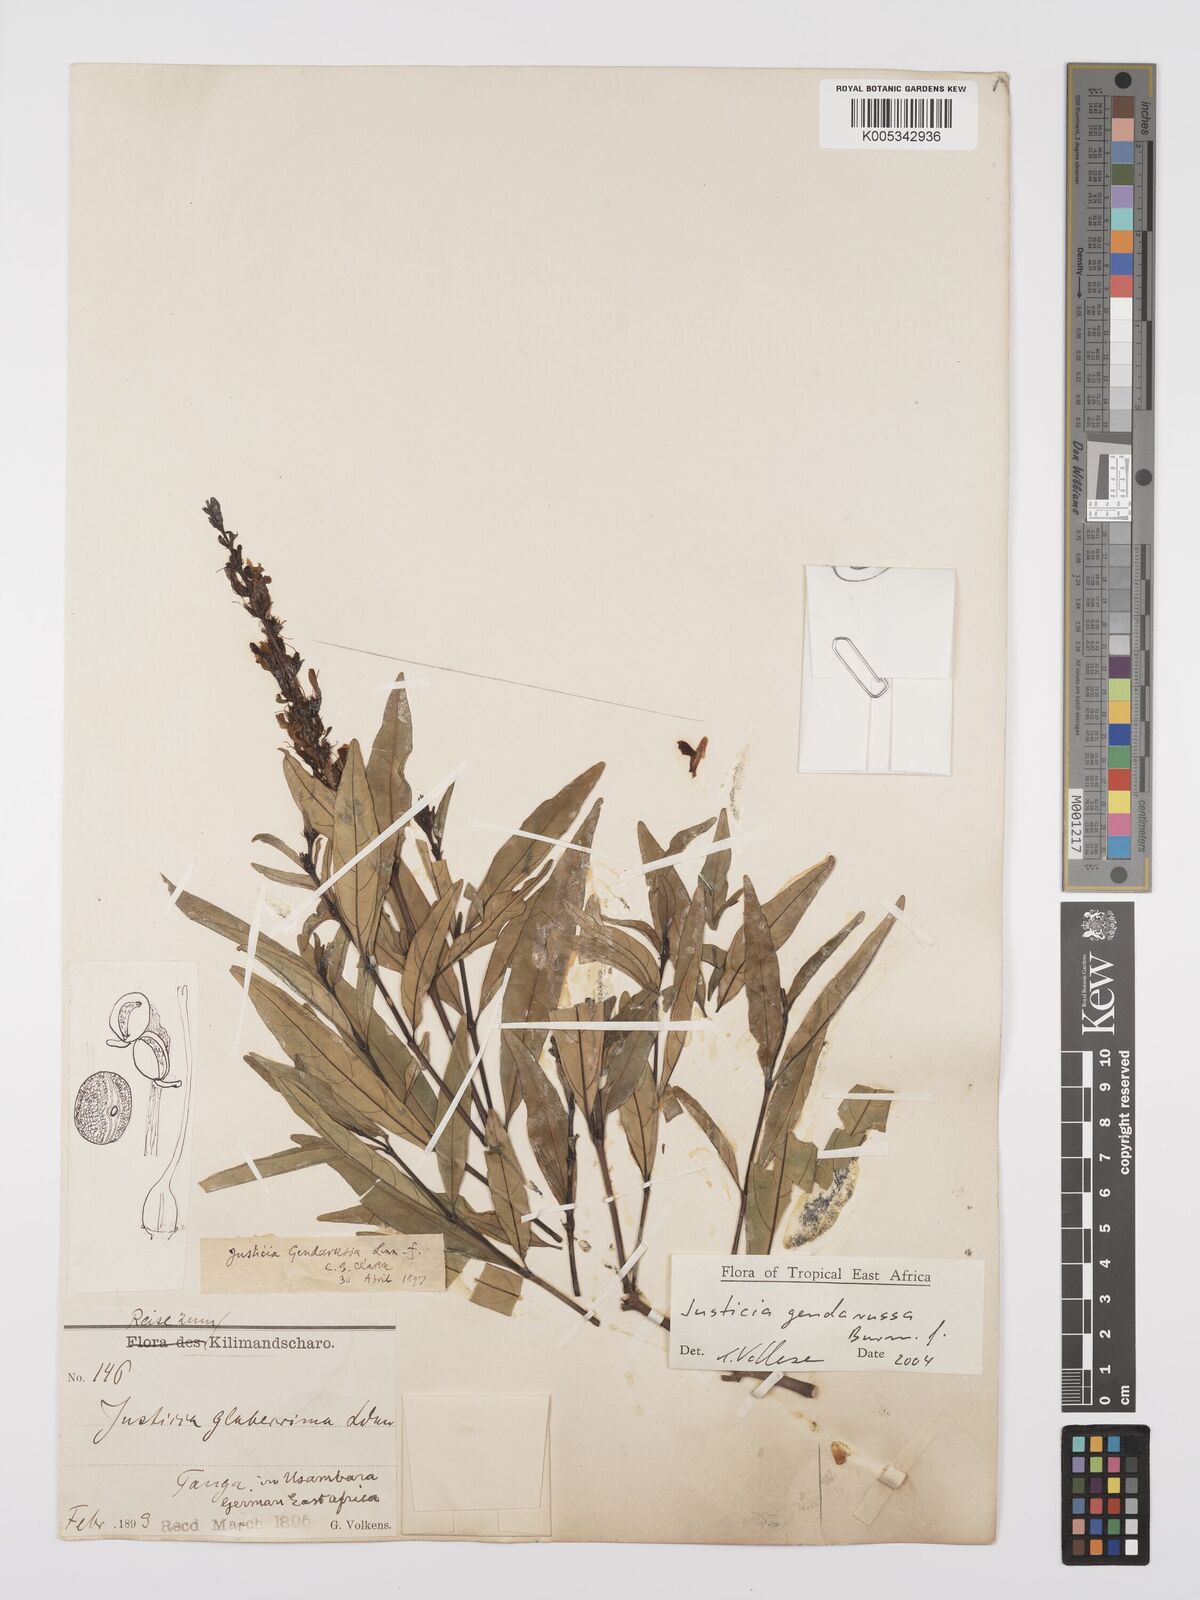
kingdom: Plantae
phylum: Tracheophyta
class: Magnoliopsida
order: Lamiales
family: Acanthaceae
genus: Justicia
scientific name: Justicia
